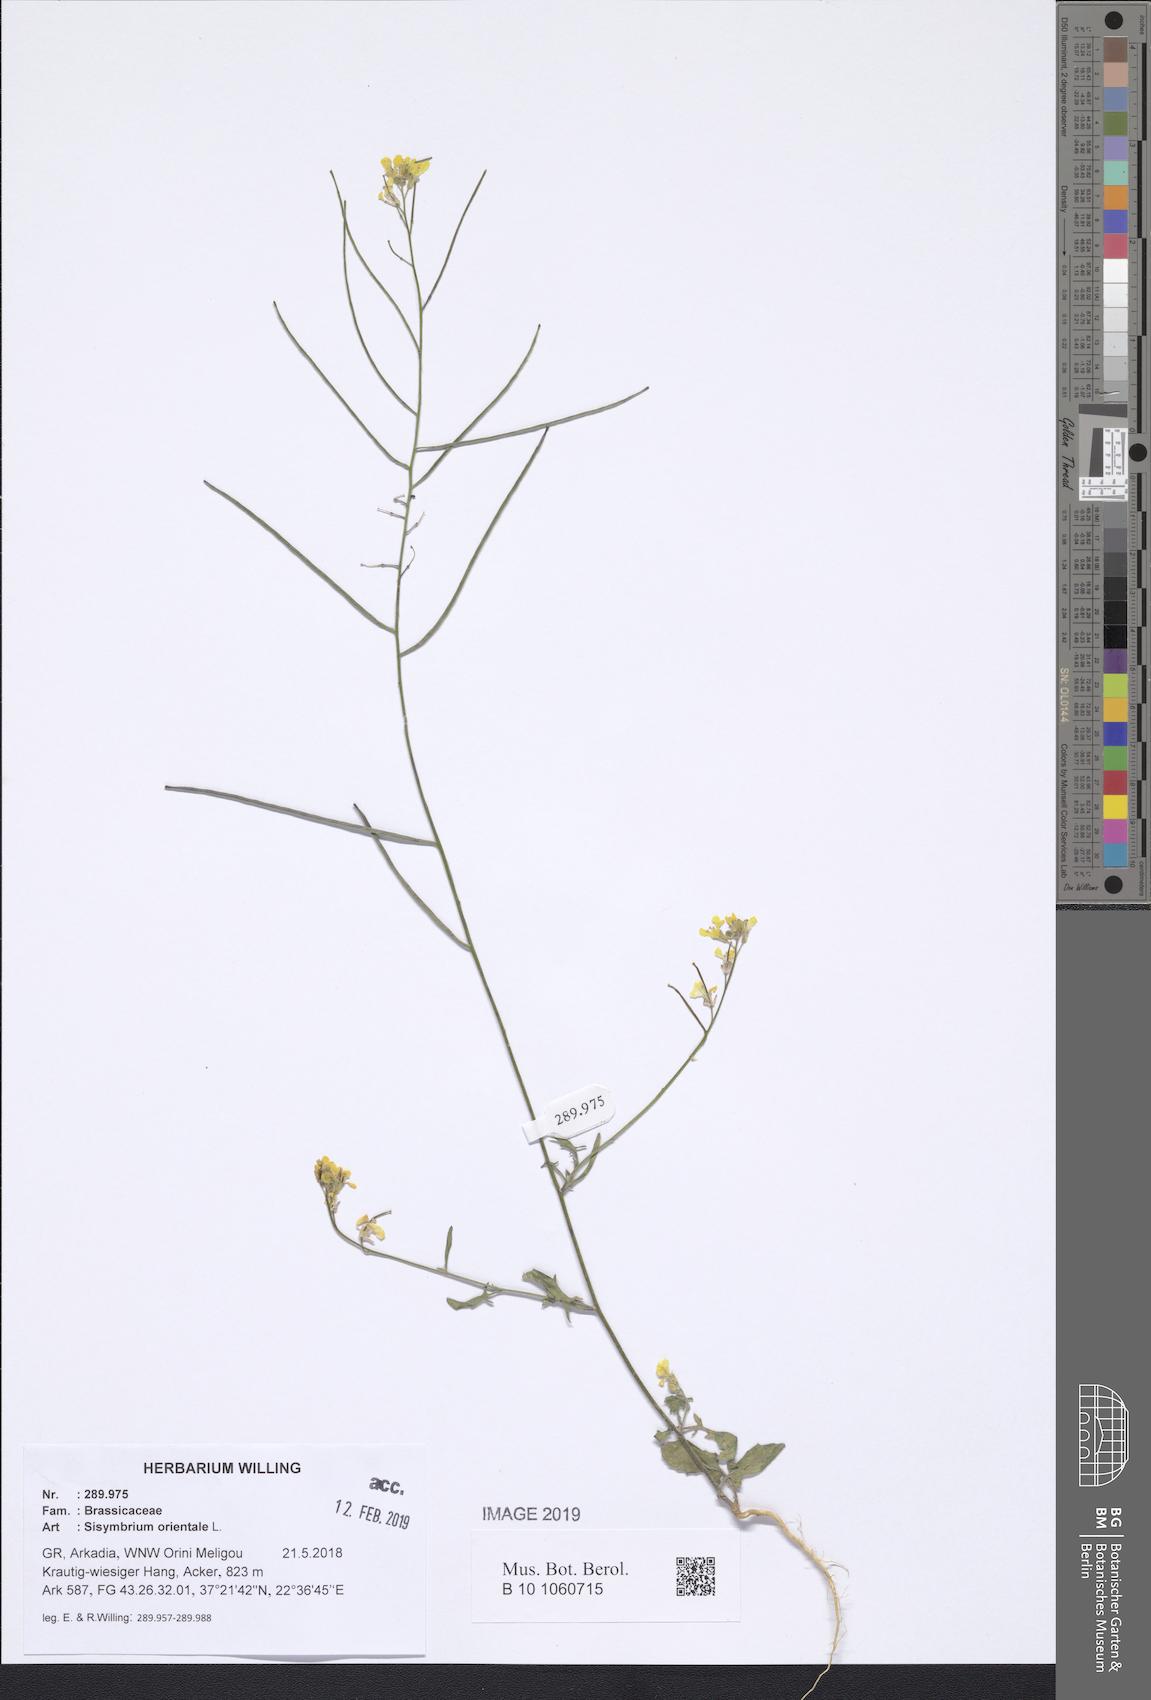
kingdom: Plantae
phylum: Tracheophyta
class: Magnoliopsida
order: Brassicales
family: Brassicaceae
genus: Sisymbrium
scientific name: Sisymbrium orientale
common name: Eastern rocket
